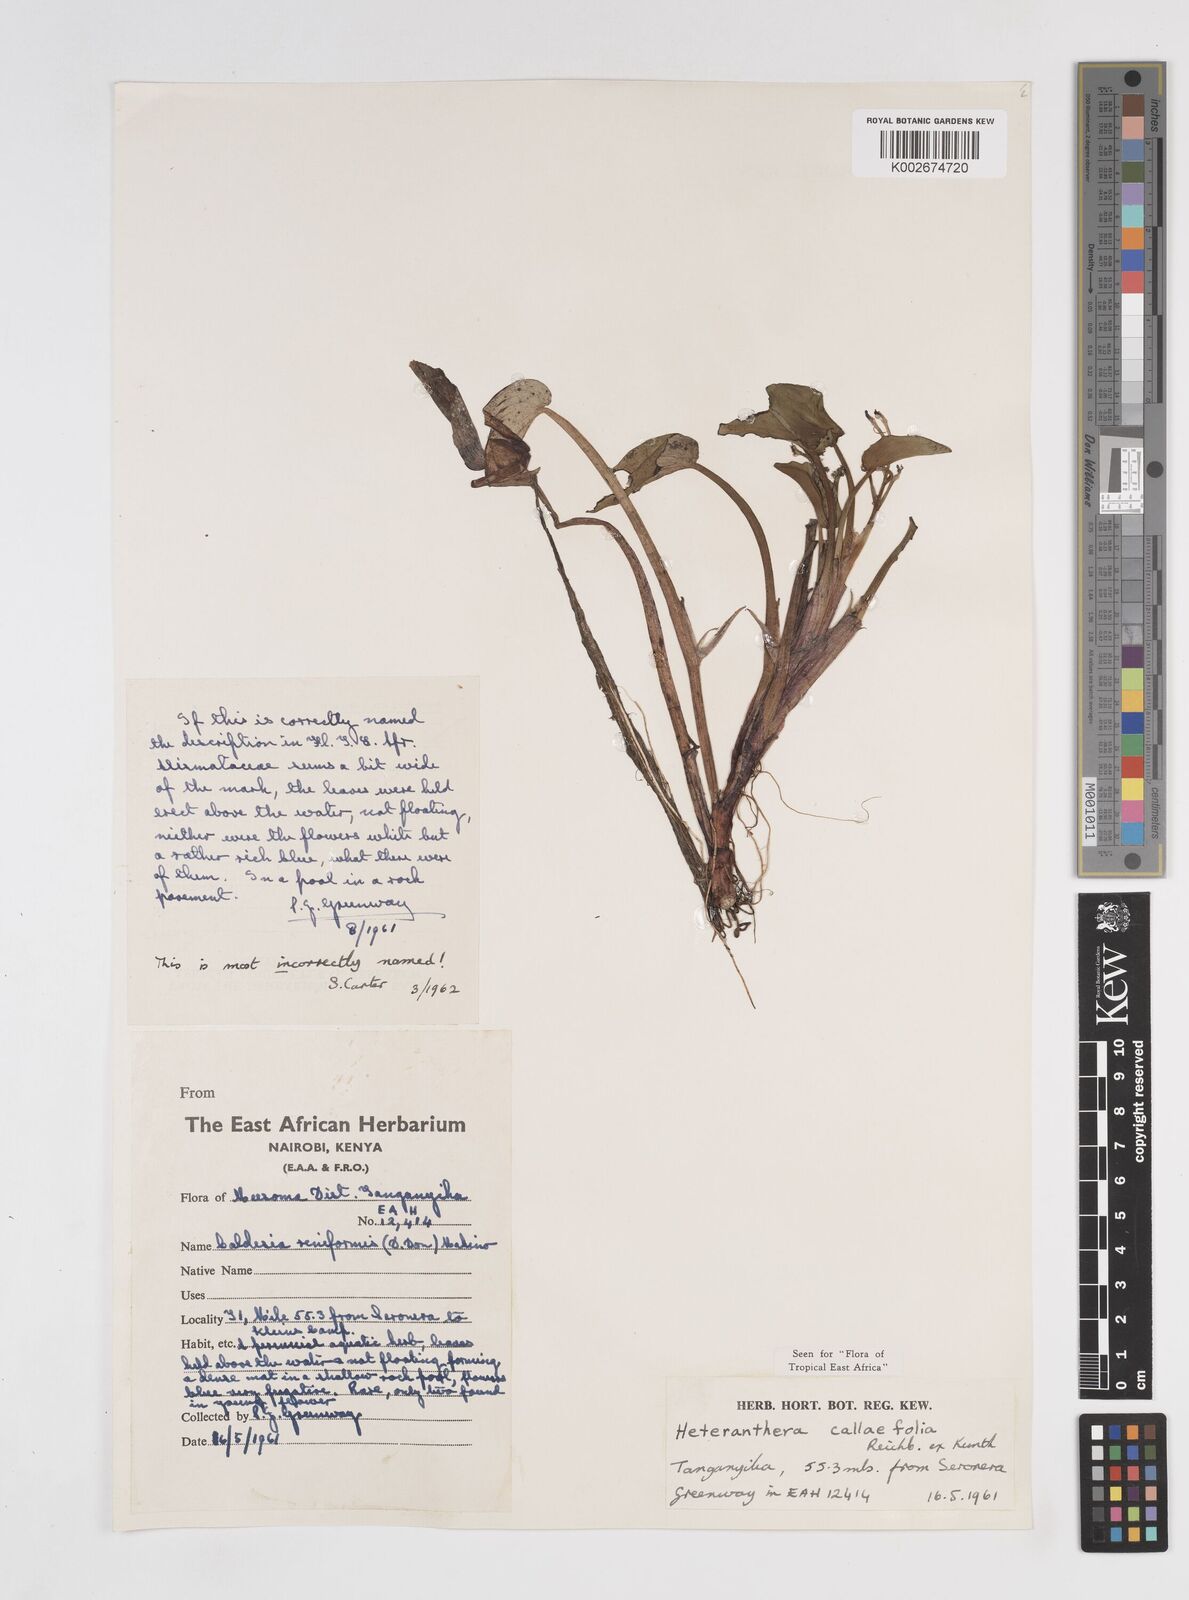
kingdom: Plantae
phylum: Tracheophyta
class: Liliopsida
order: Commelinales
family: Pontederiaceae
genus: Heteranthera
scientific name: Heteranthera callifolia
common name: Mud plantain
